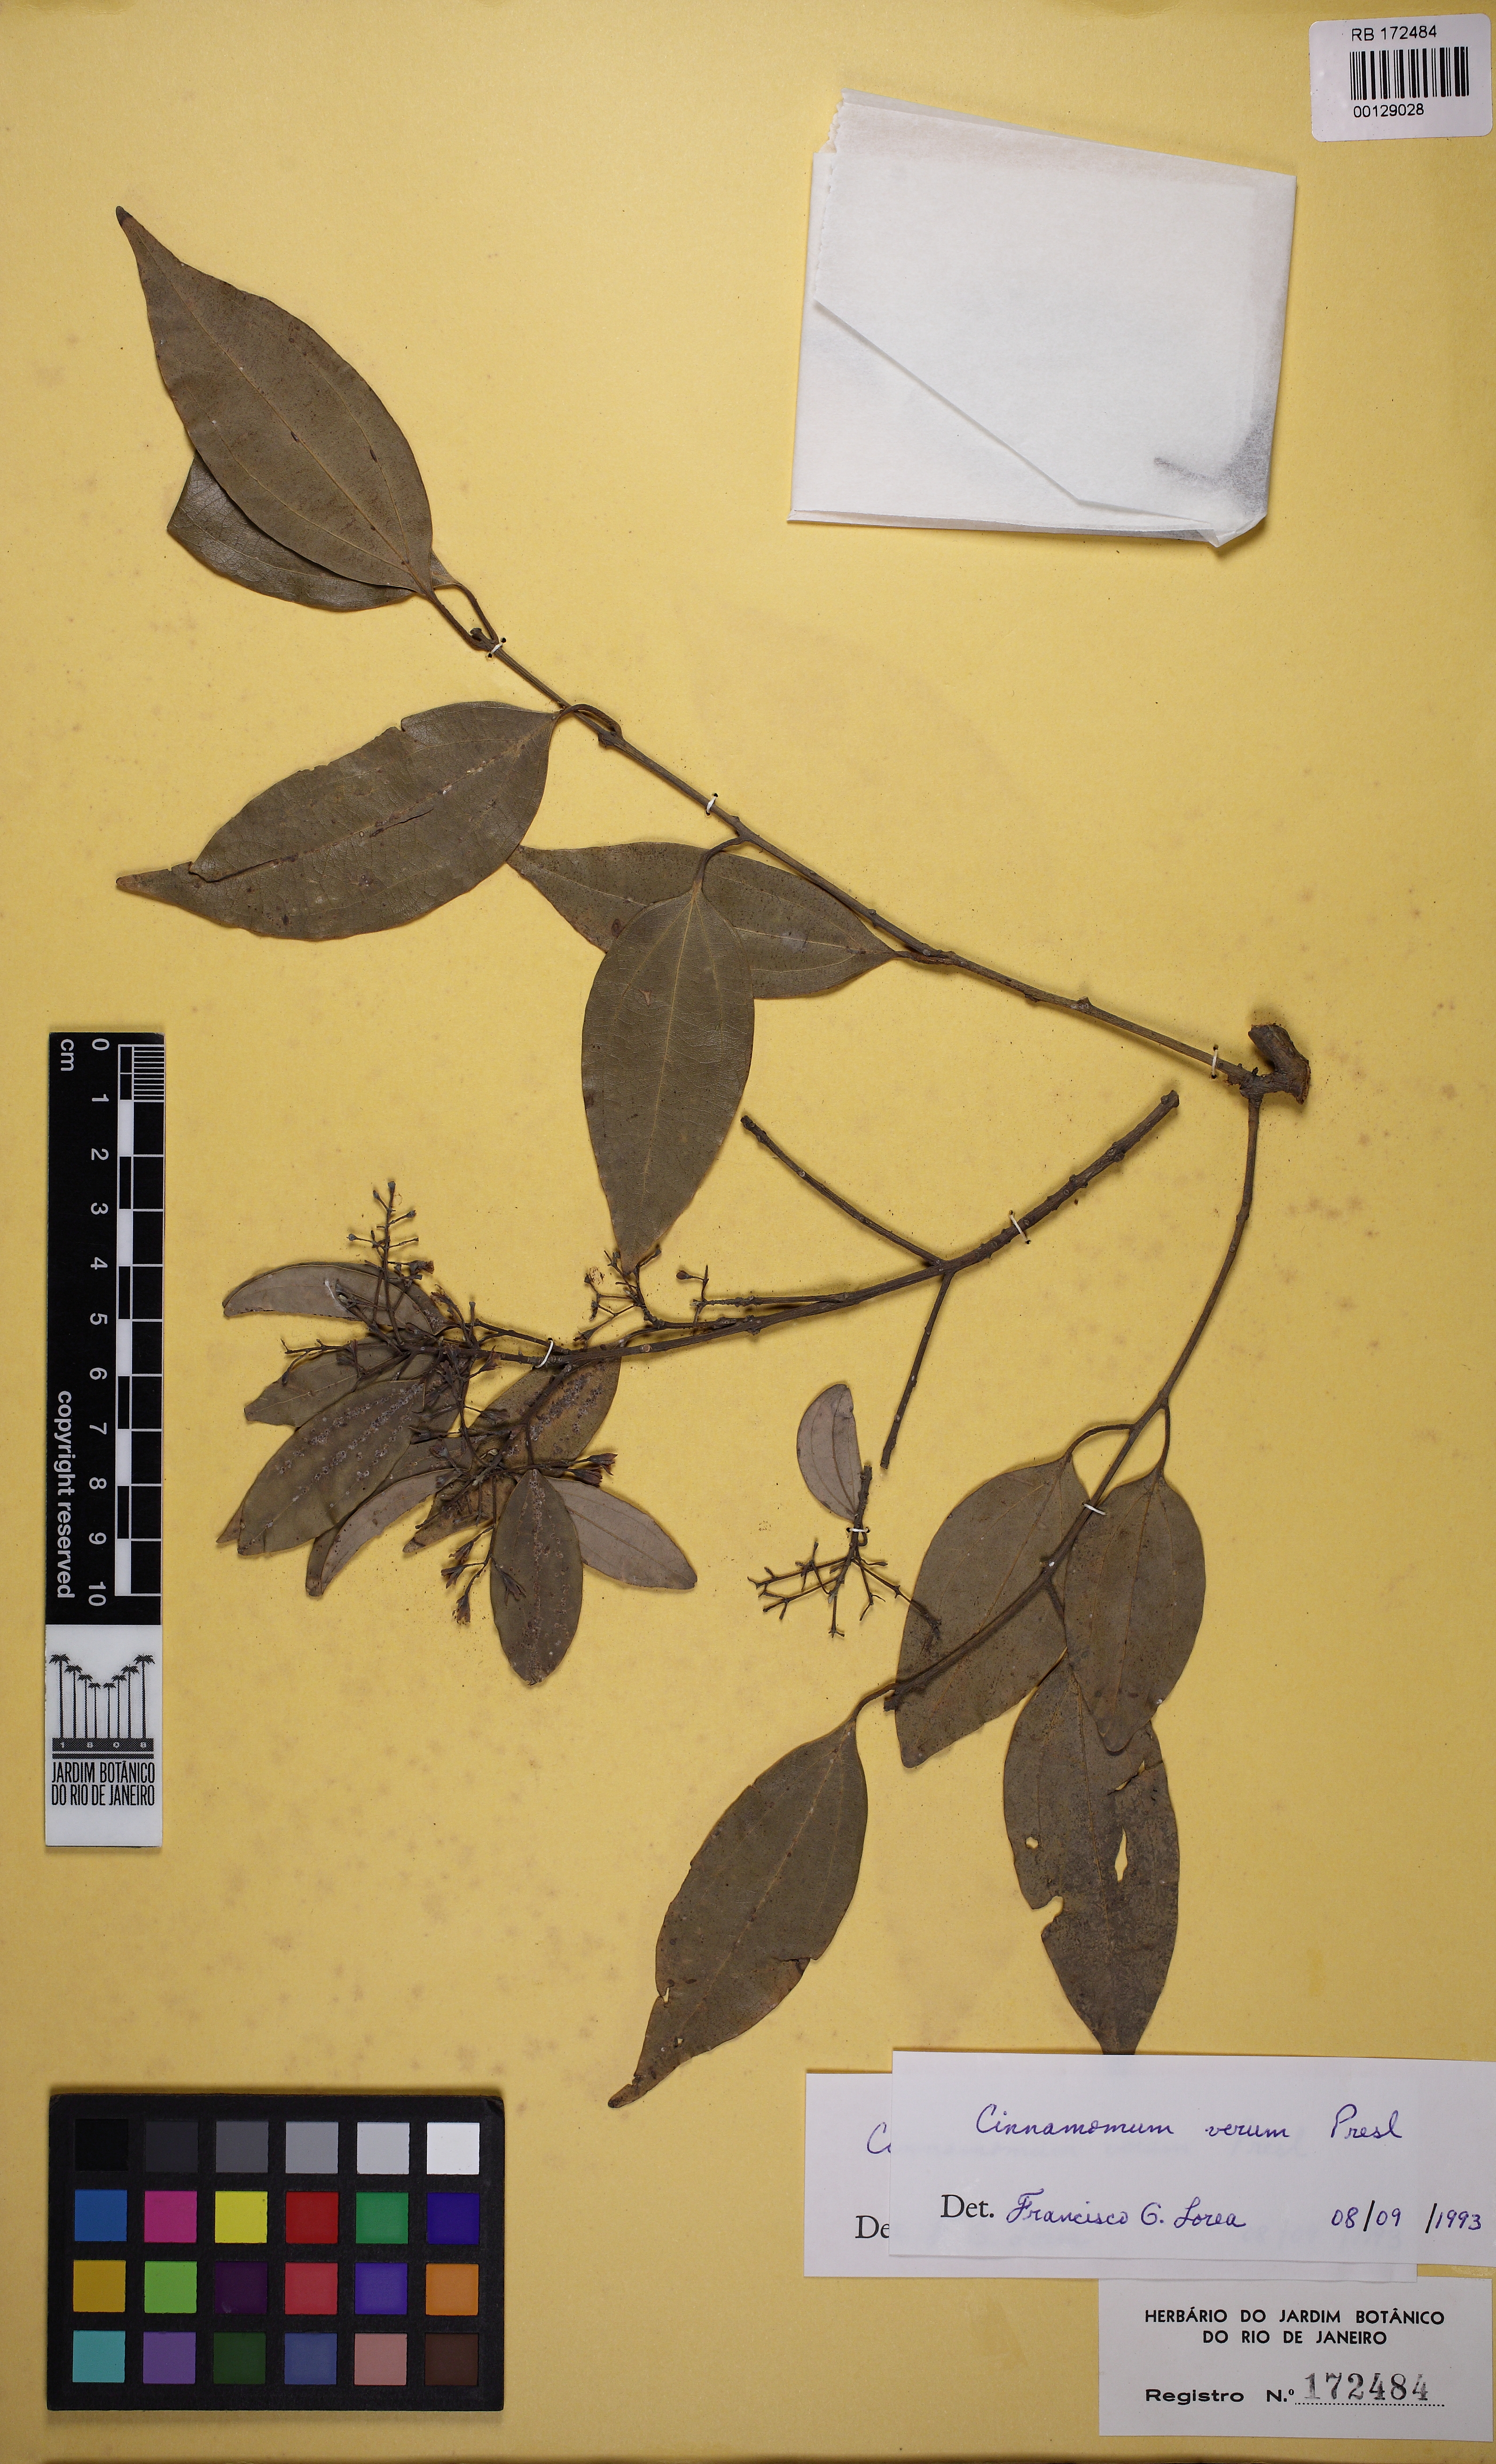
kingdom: Plantae
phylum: Tracheophyta
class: Magnoliopsida
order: Laurales
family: Lauraceae
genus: Cinnamomum
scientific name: Cinnamomum verum
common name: Cinnamon
